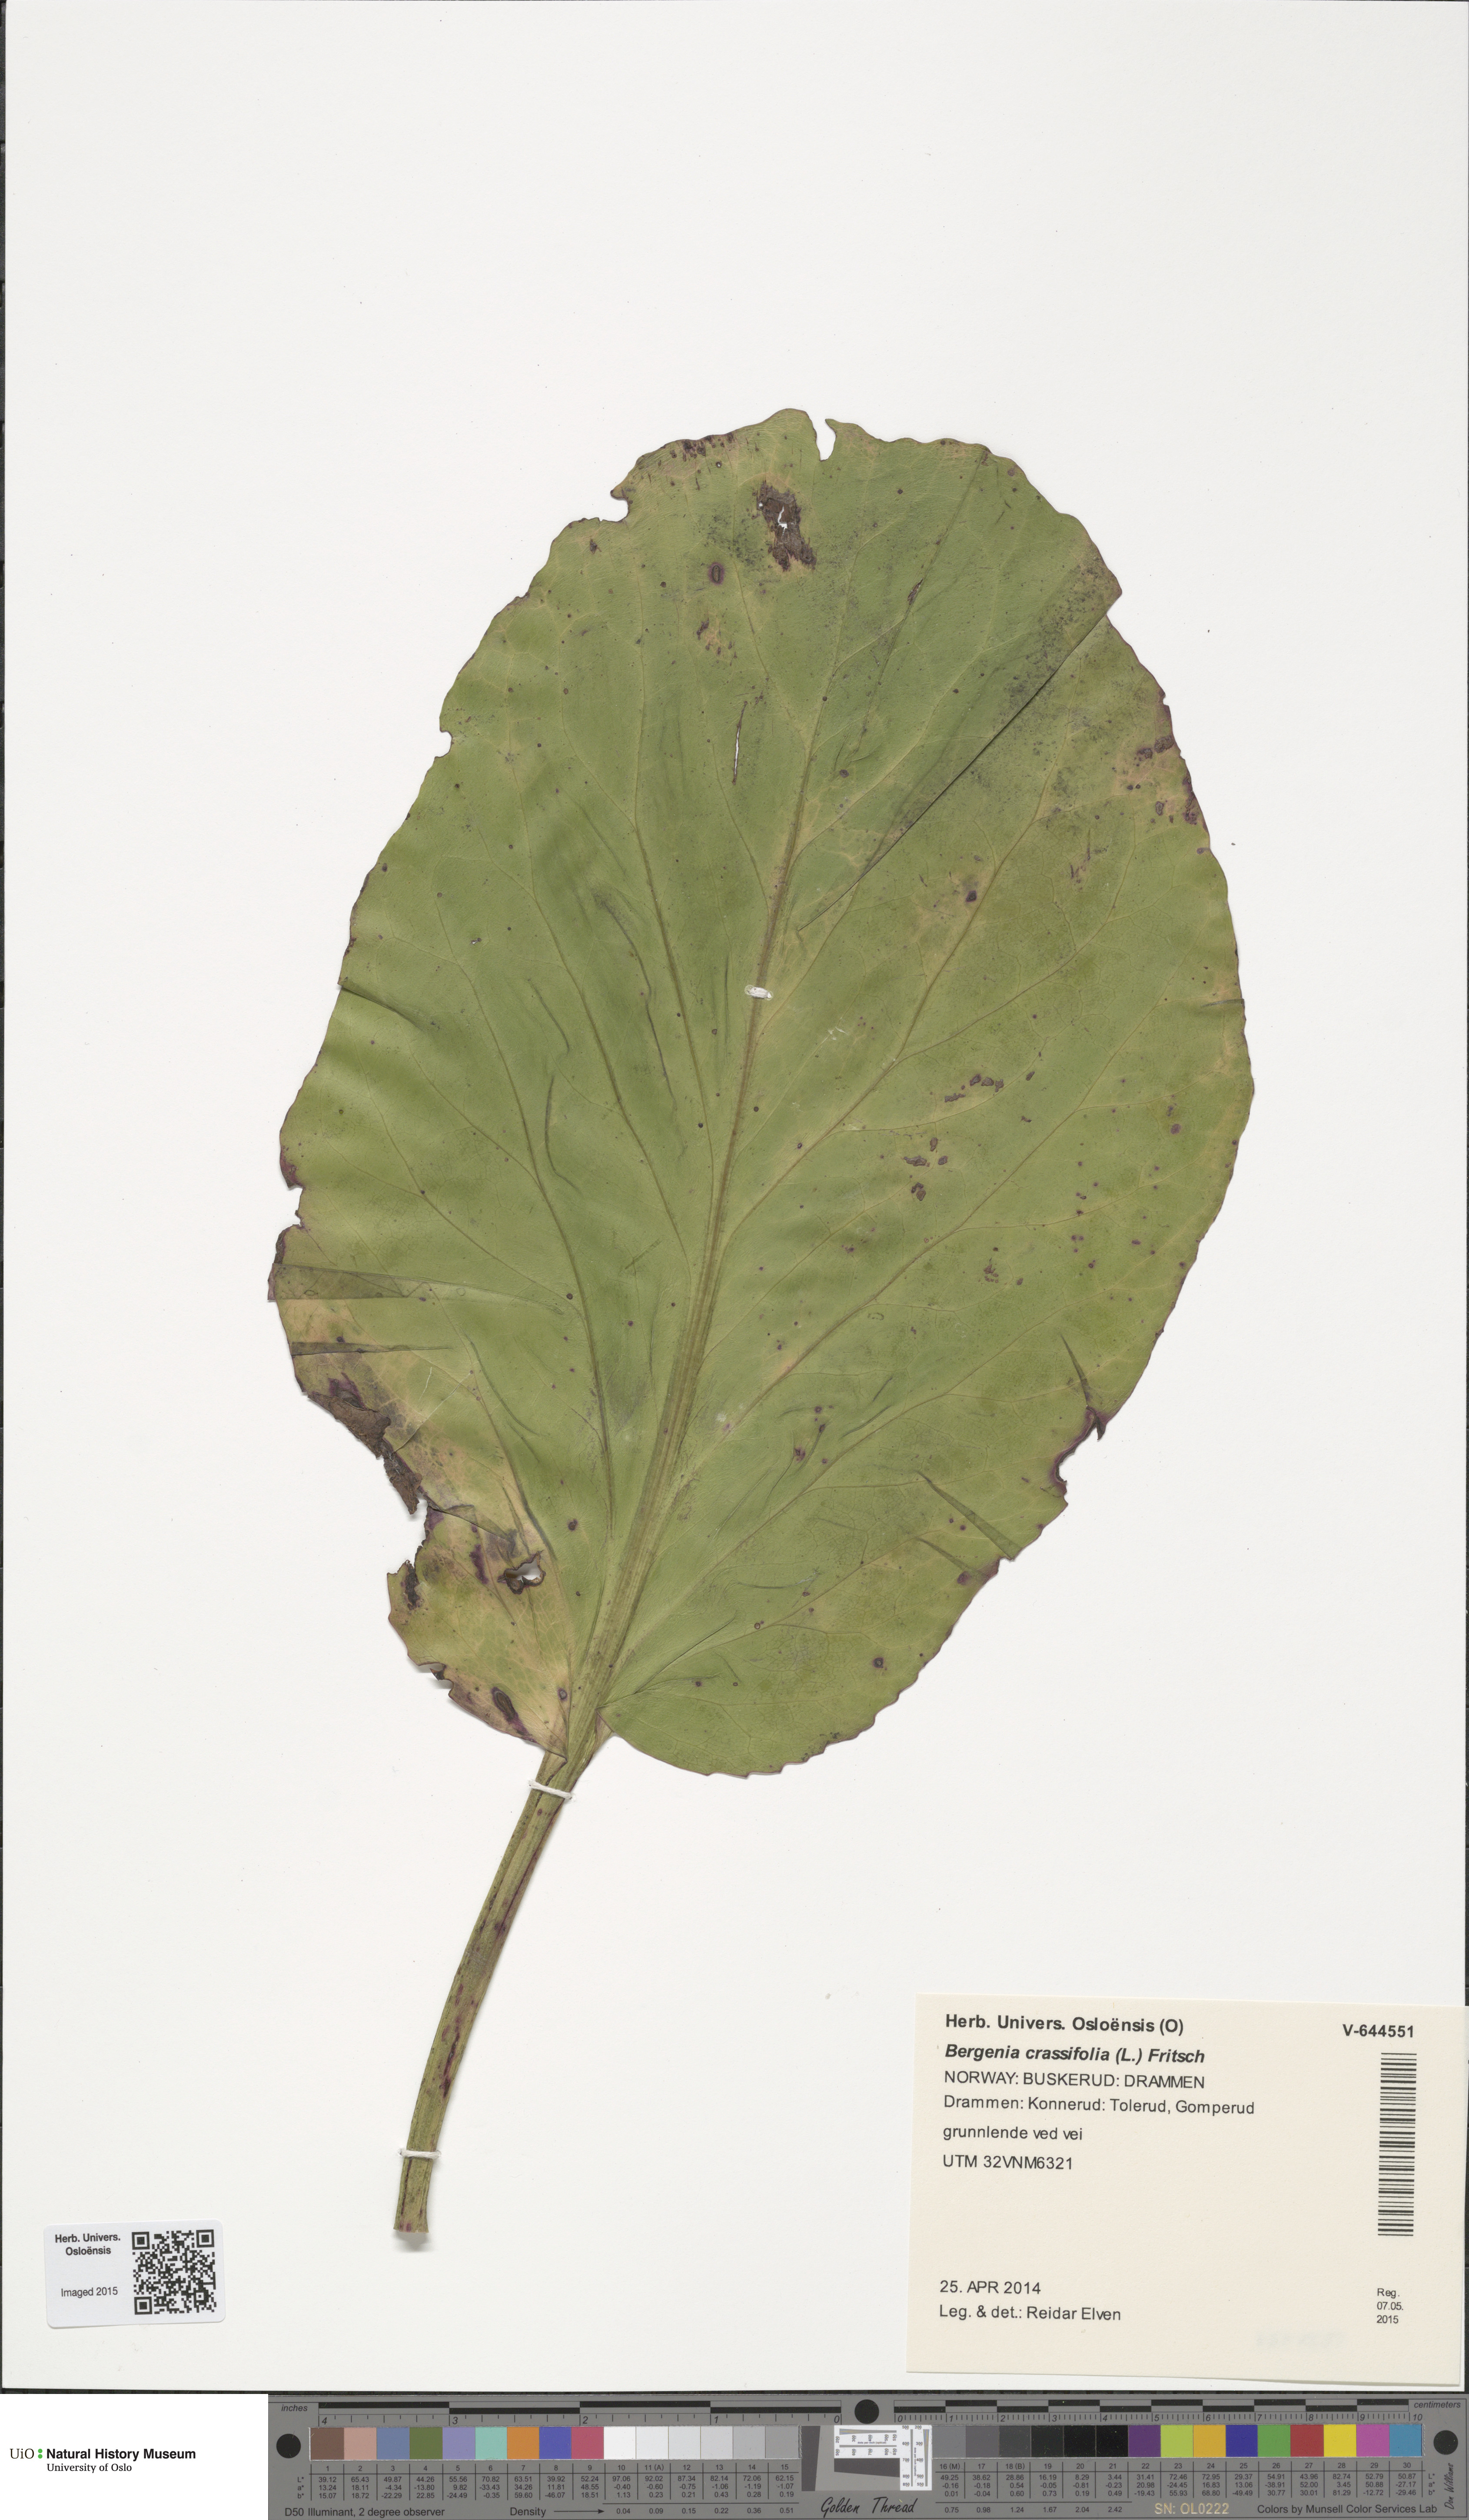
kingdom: Plantae
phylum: Tracheophyta
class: Magnoliopsida
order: Saxifragales
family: Saxifragaceae
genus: Bergenia
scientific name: Bergenia crassifolia
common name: Elephant-ears
